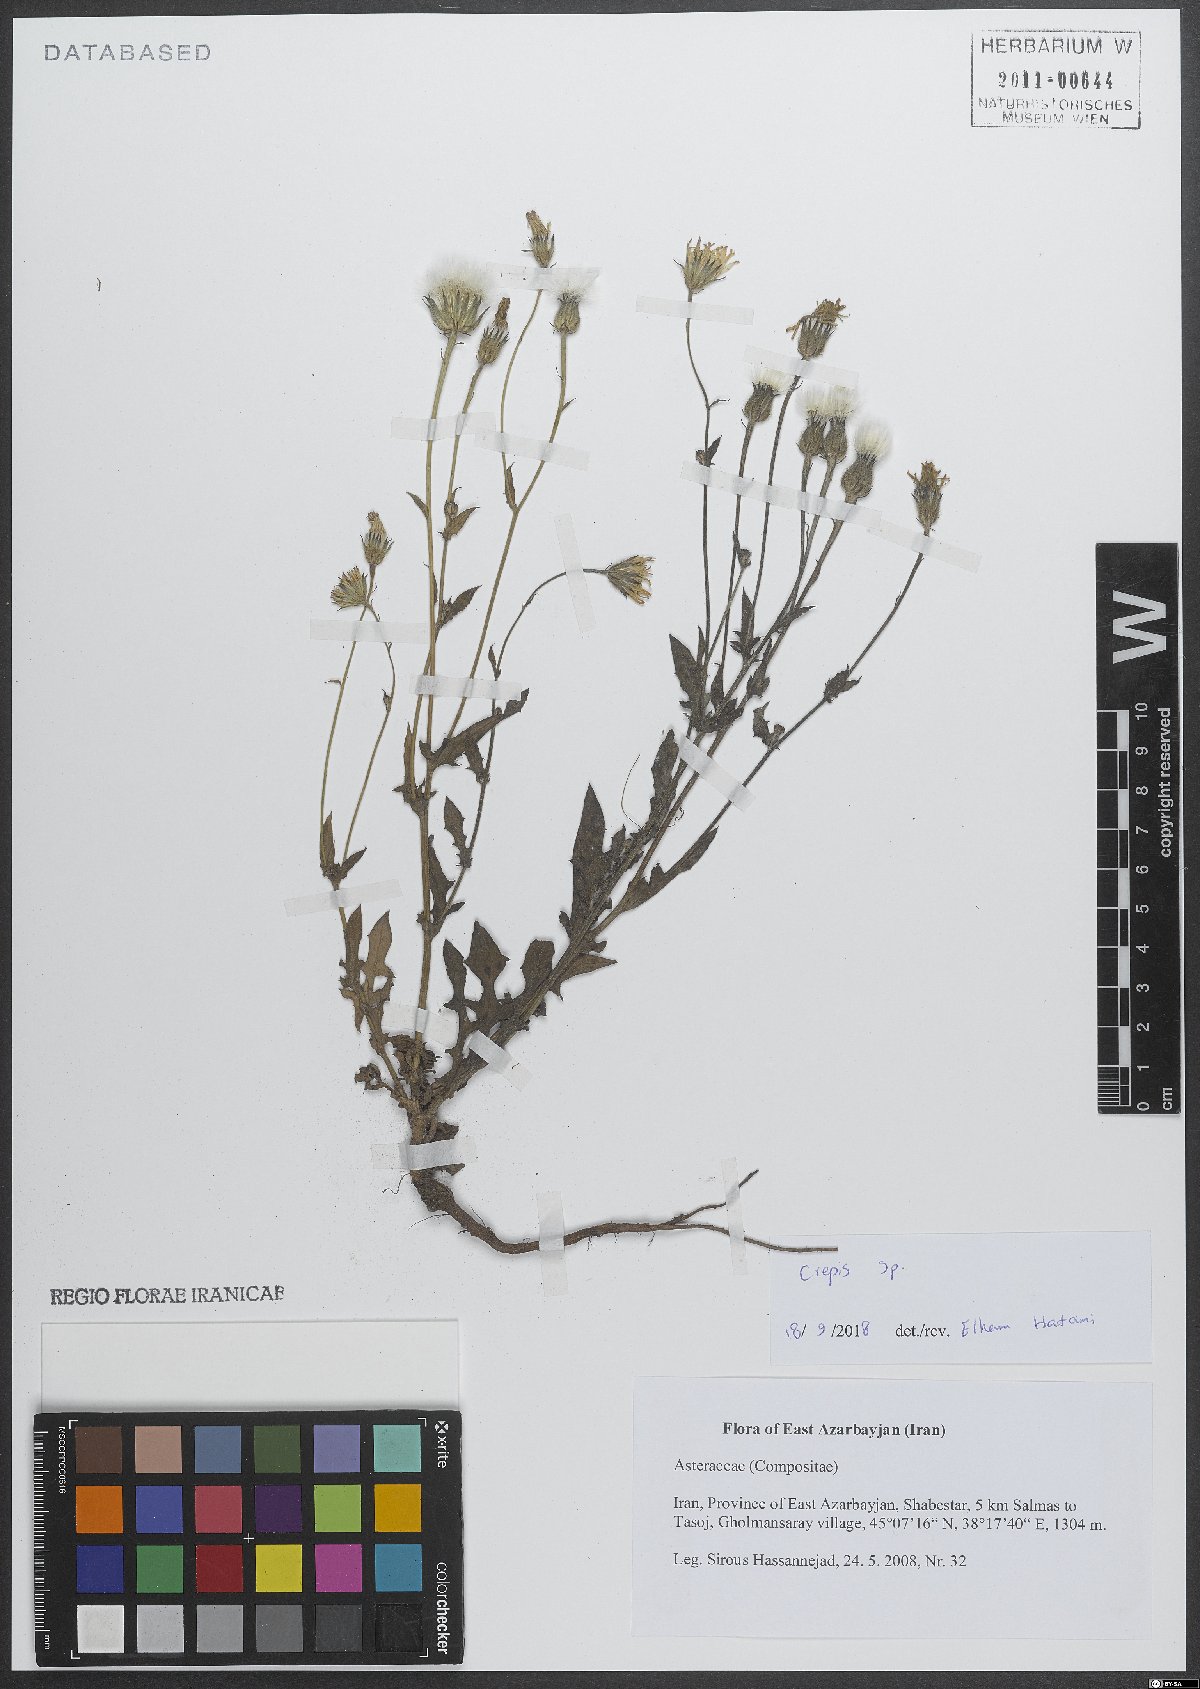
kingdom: Plantae
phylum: Tracheophyta
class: Magnoliopsida
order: Asterales
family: Asteraceae
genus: Crepis
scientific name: Crepis
